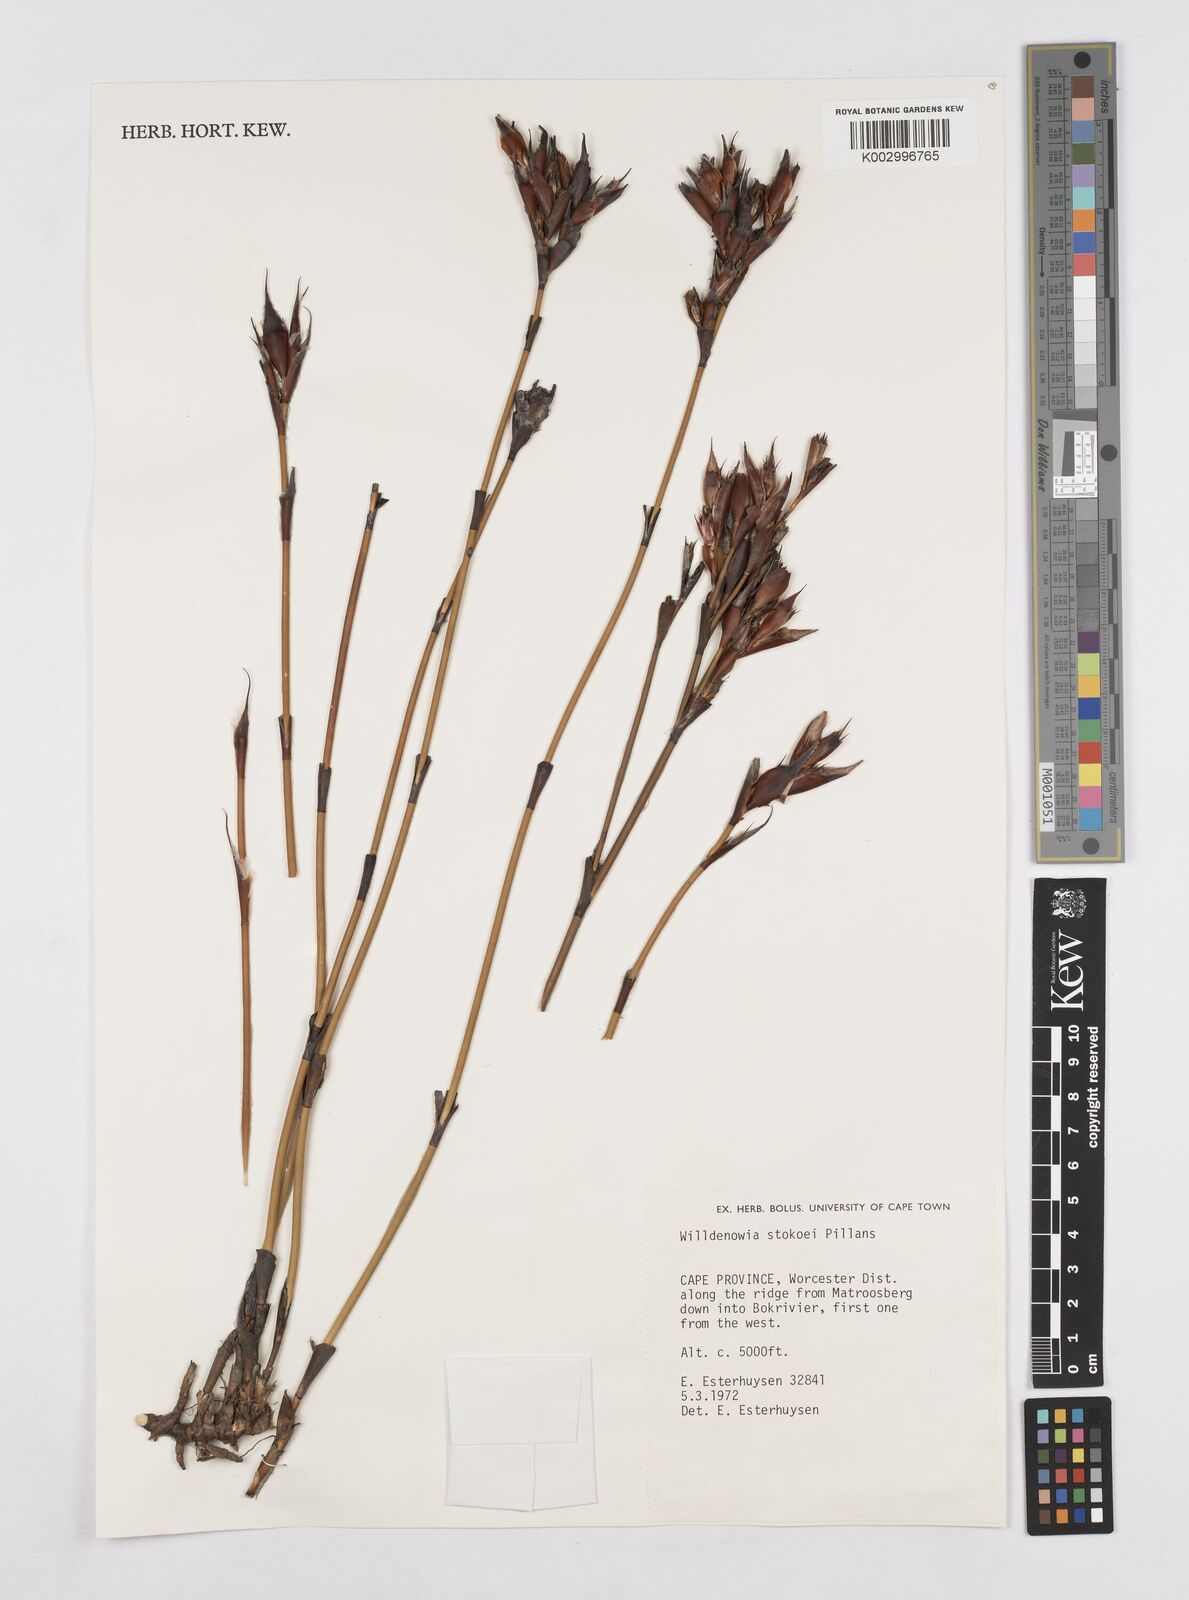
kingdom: Plantae
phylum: Tracheophyta
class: Liliopsida
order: Poales
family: Restionaceae
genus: Willdenowia
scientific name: Willdenowia stokoei
